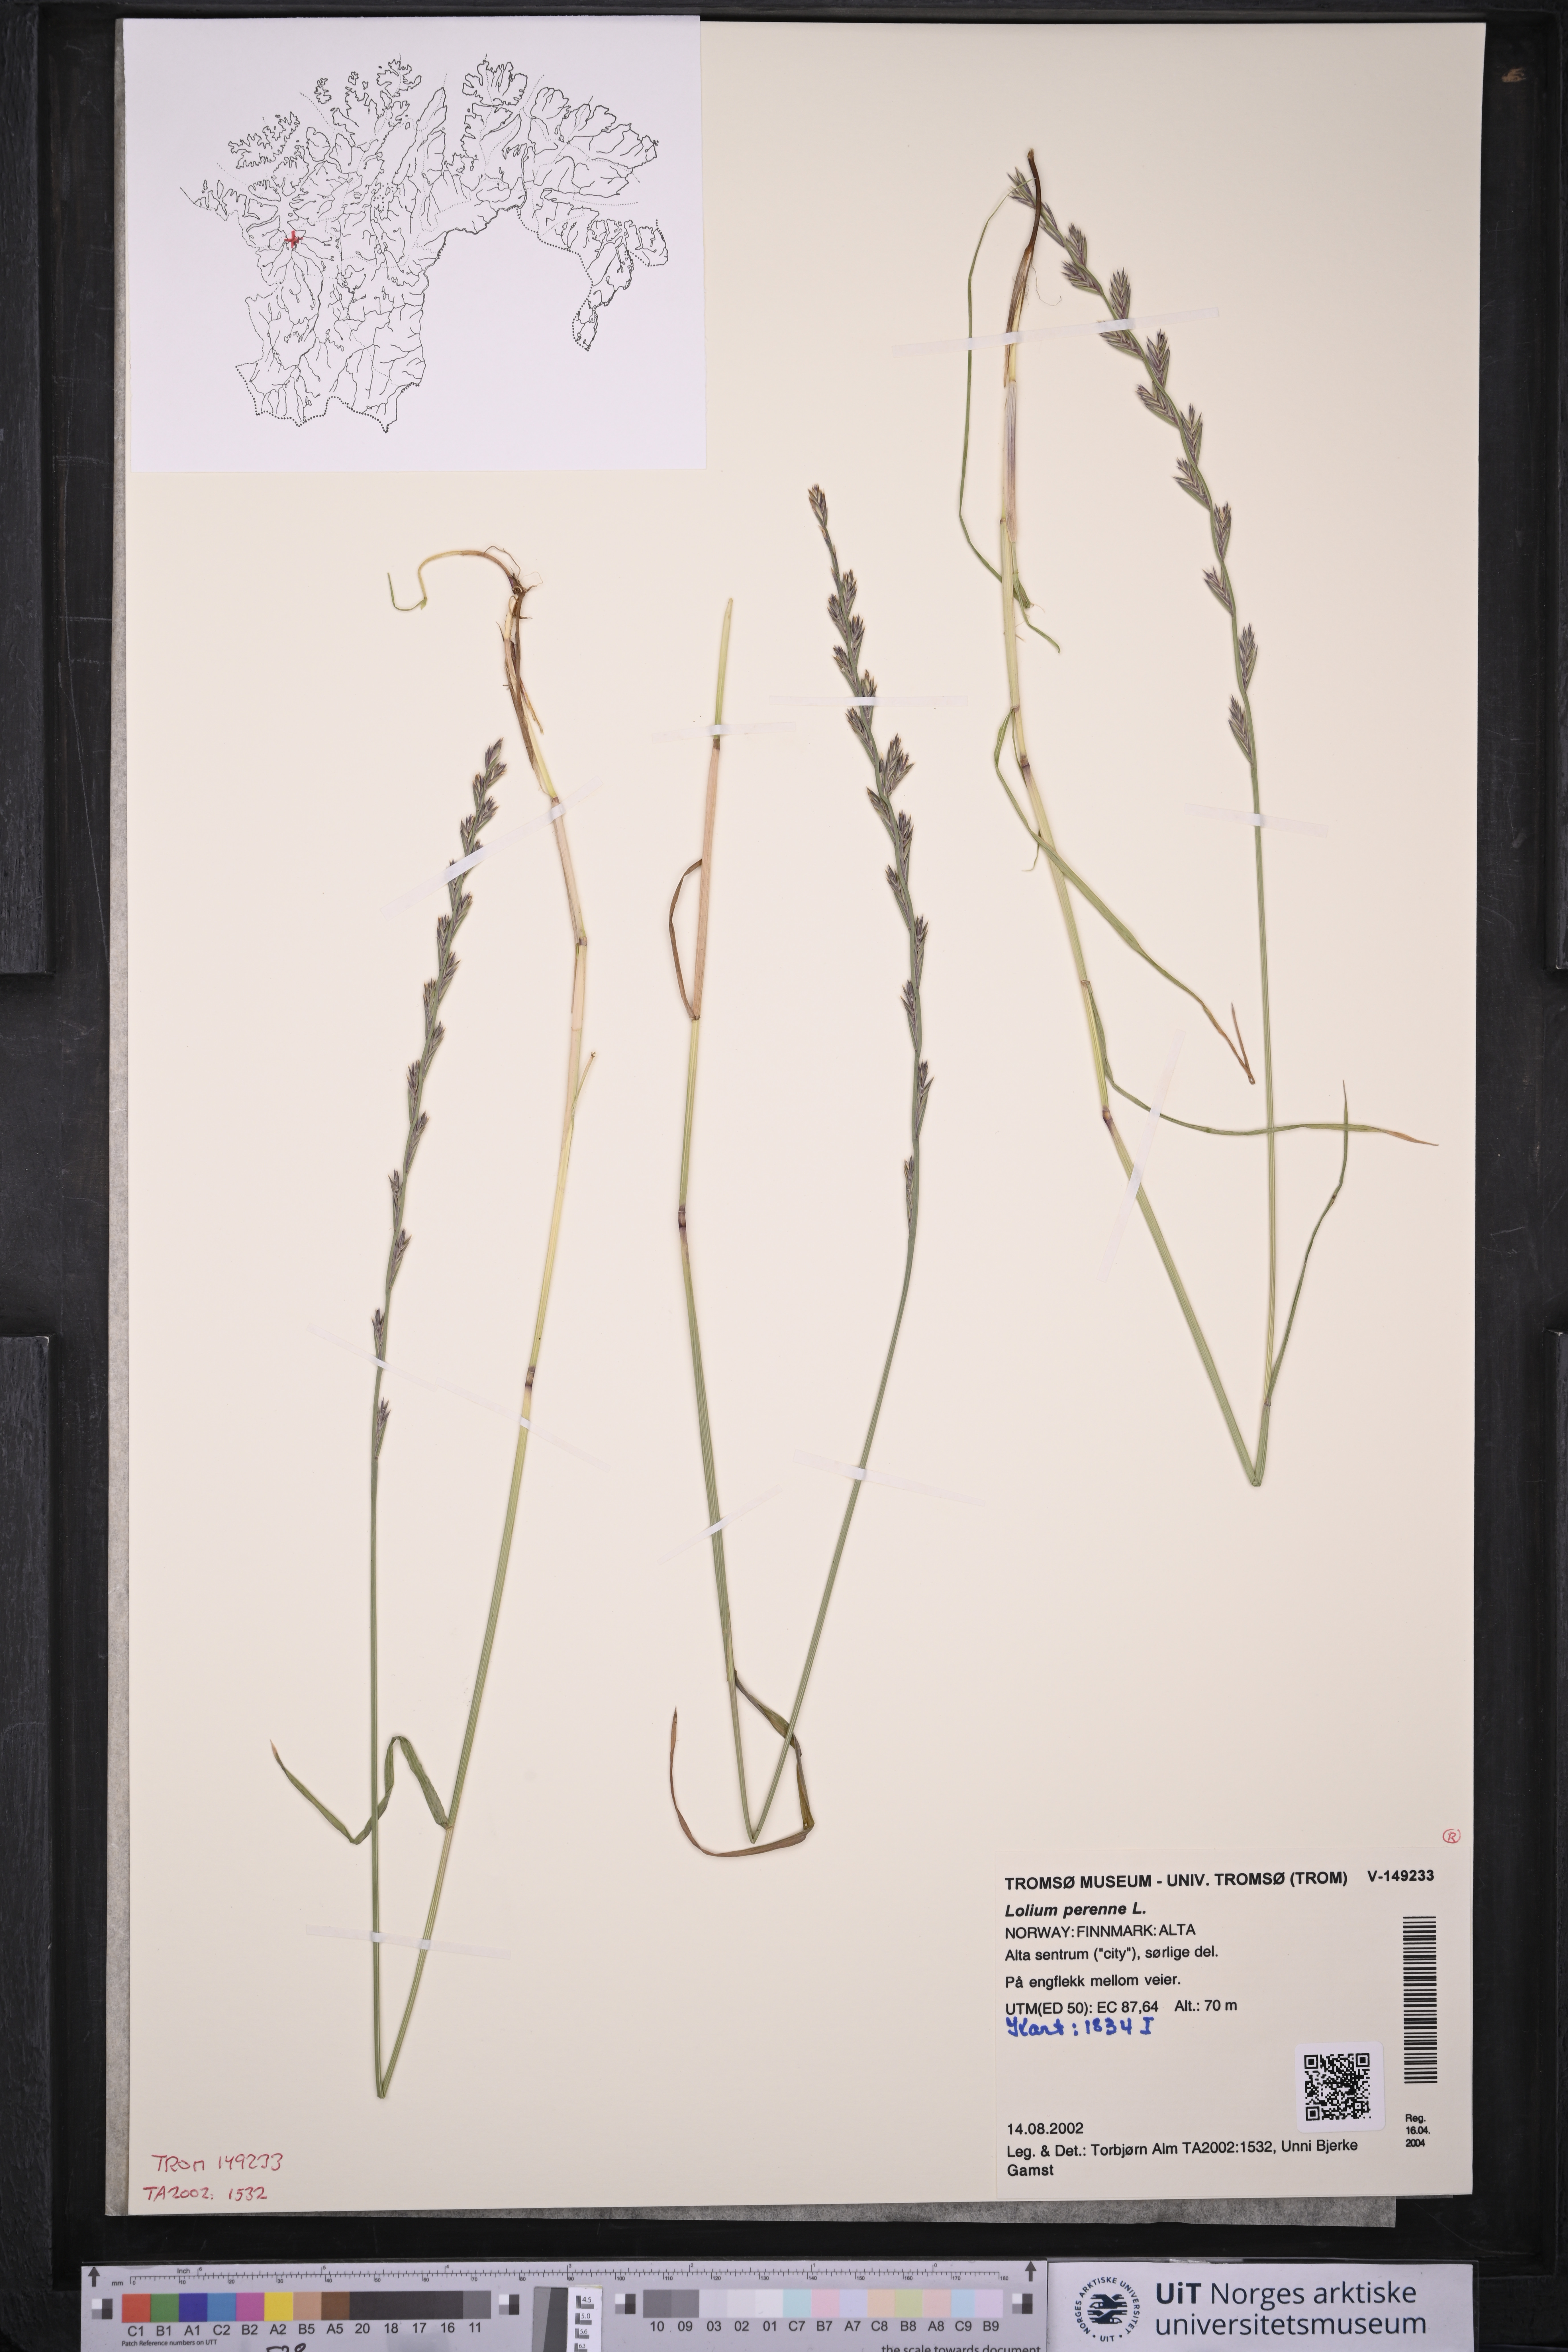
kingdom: Plantae
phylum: Tracheophyta
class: Liliopsida
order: Poales
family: Poaceae
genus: Lolium
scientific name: Lolium perenne
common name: Perennial ryegrass
